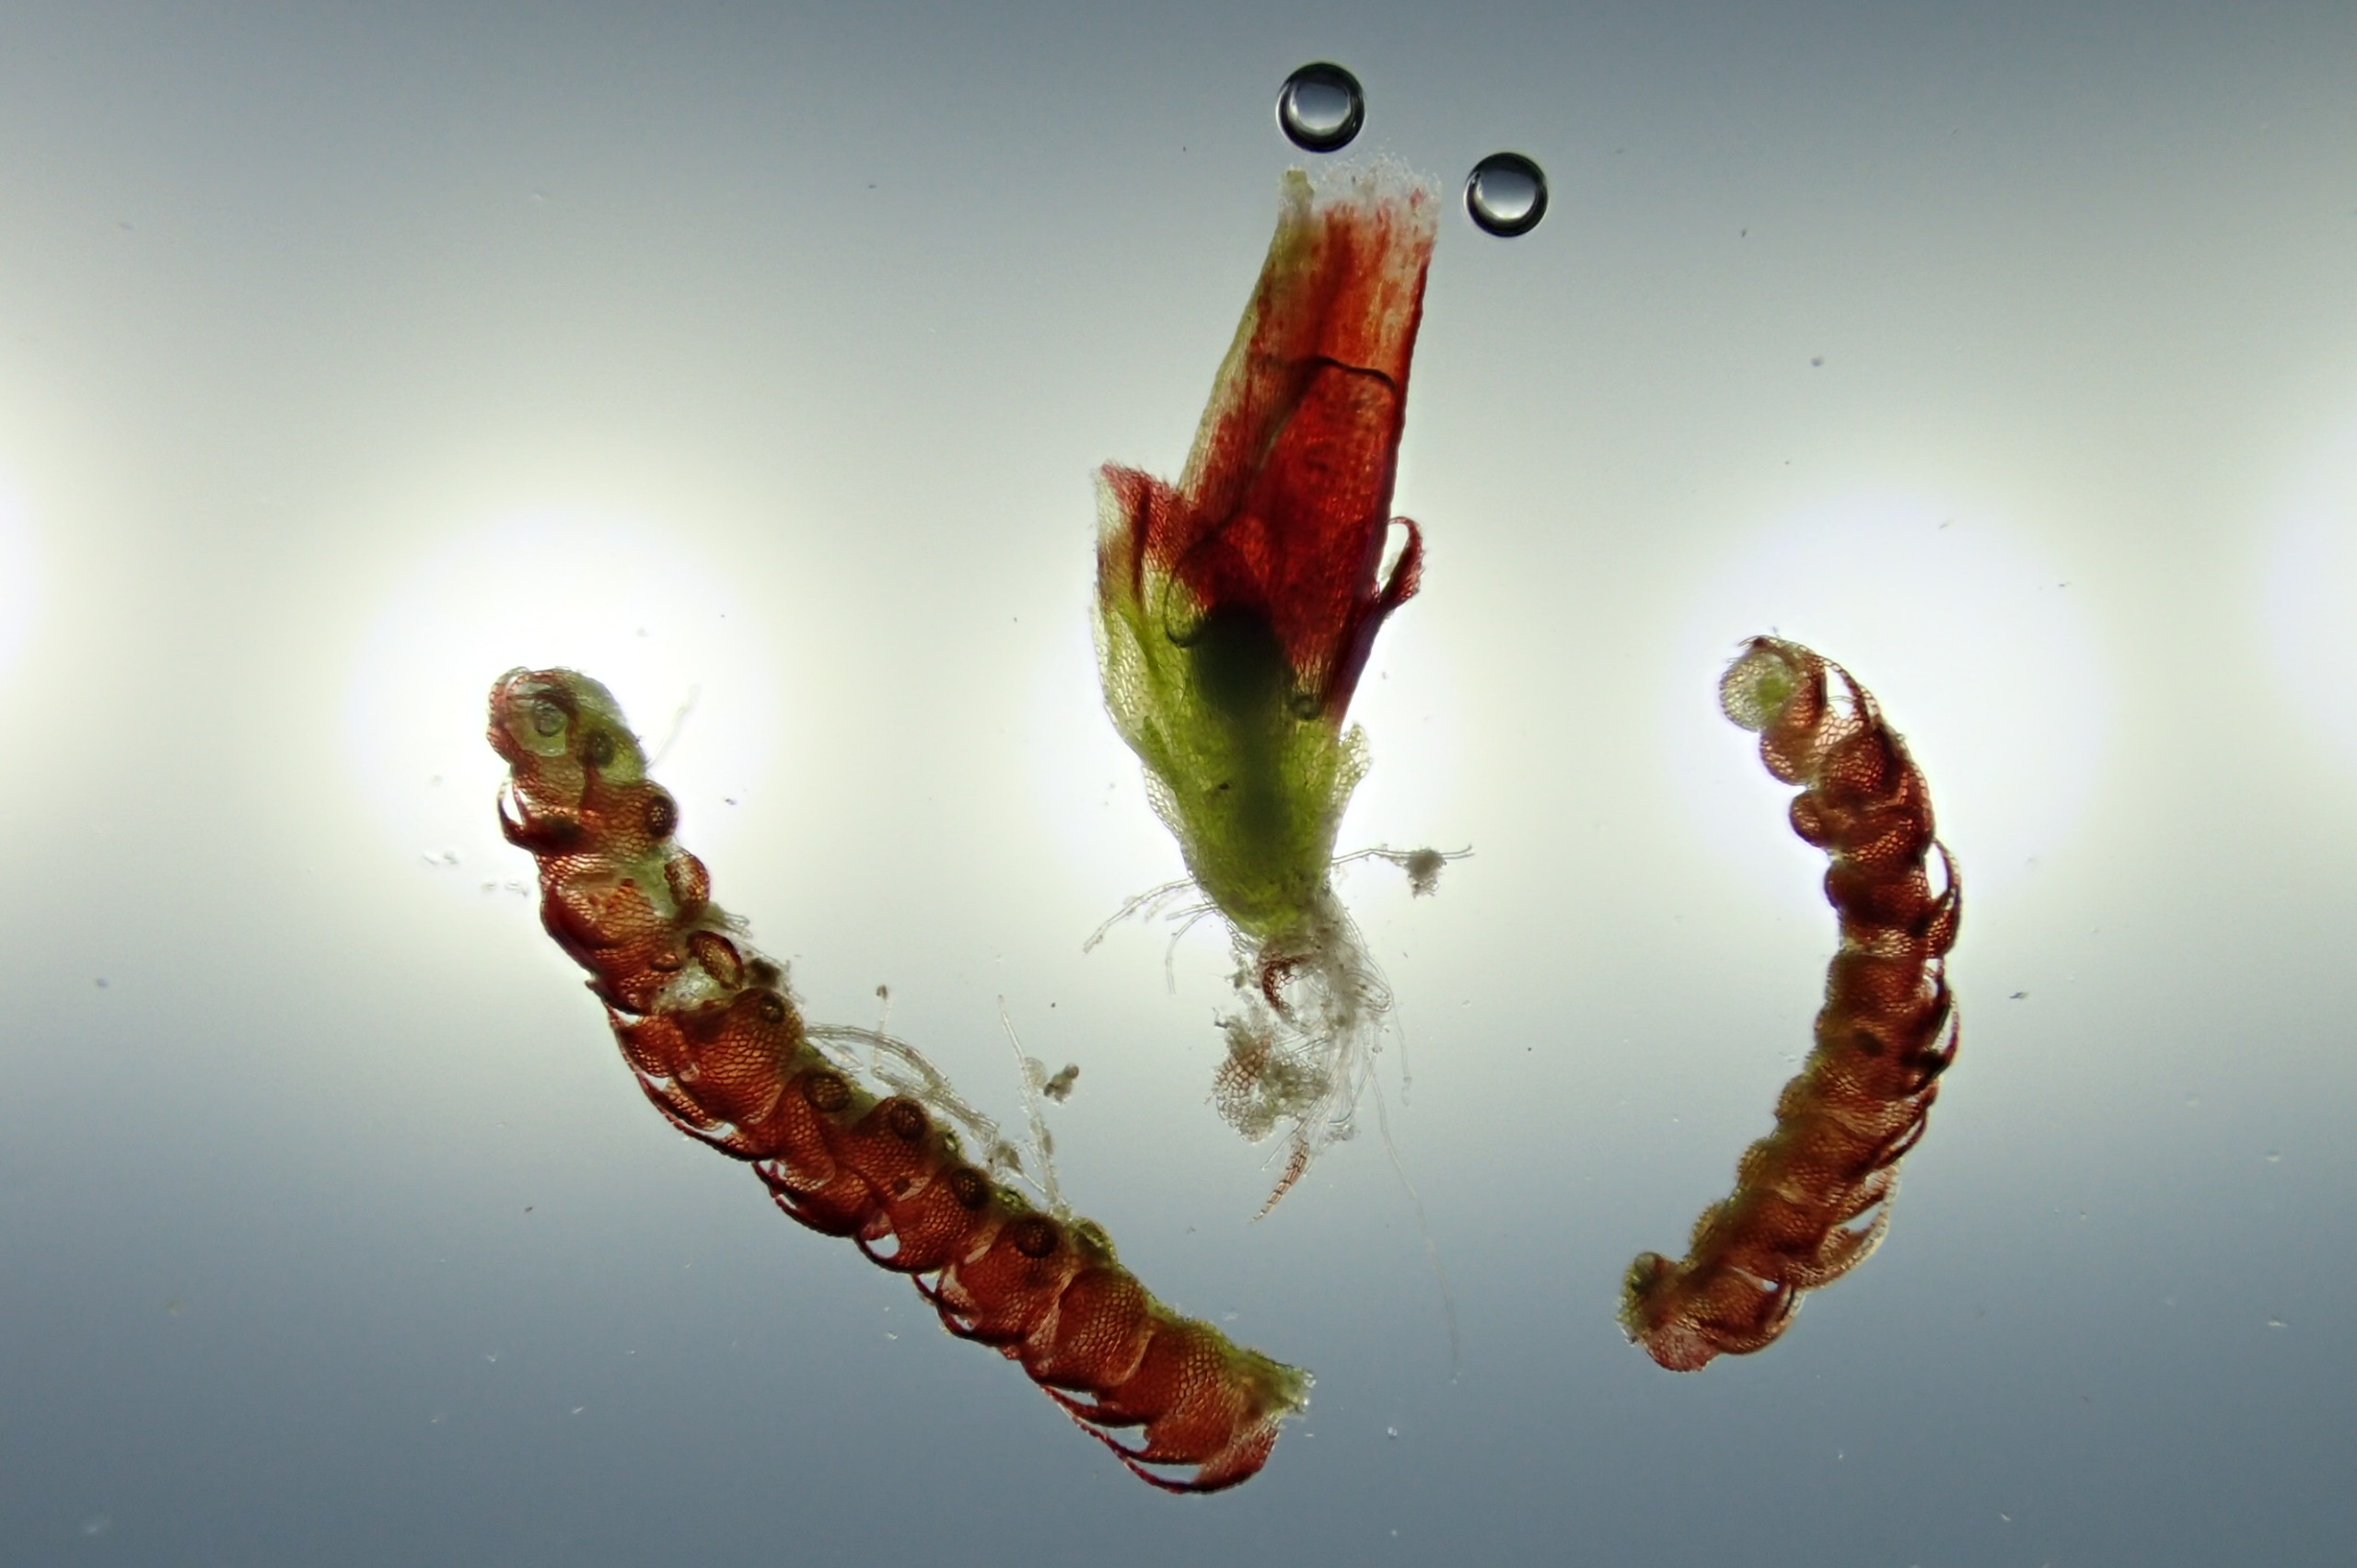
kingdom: Plantae
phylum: Marchantiophyta
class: Jungermanniopsida
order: Jungermanniales
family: Cephaloziaceae
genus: Nowellia
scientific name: Nowellia curvifolia
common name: Krumbladet stødmos
